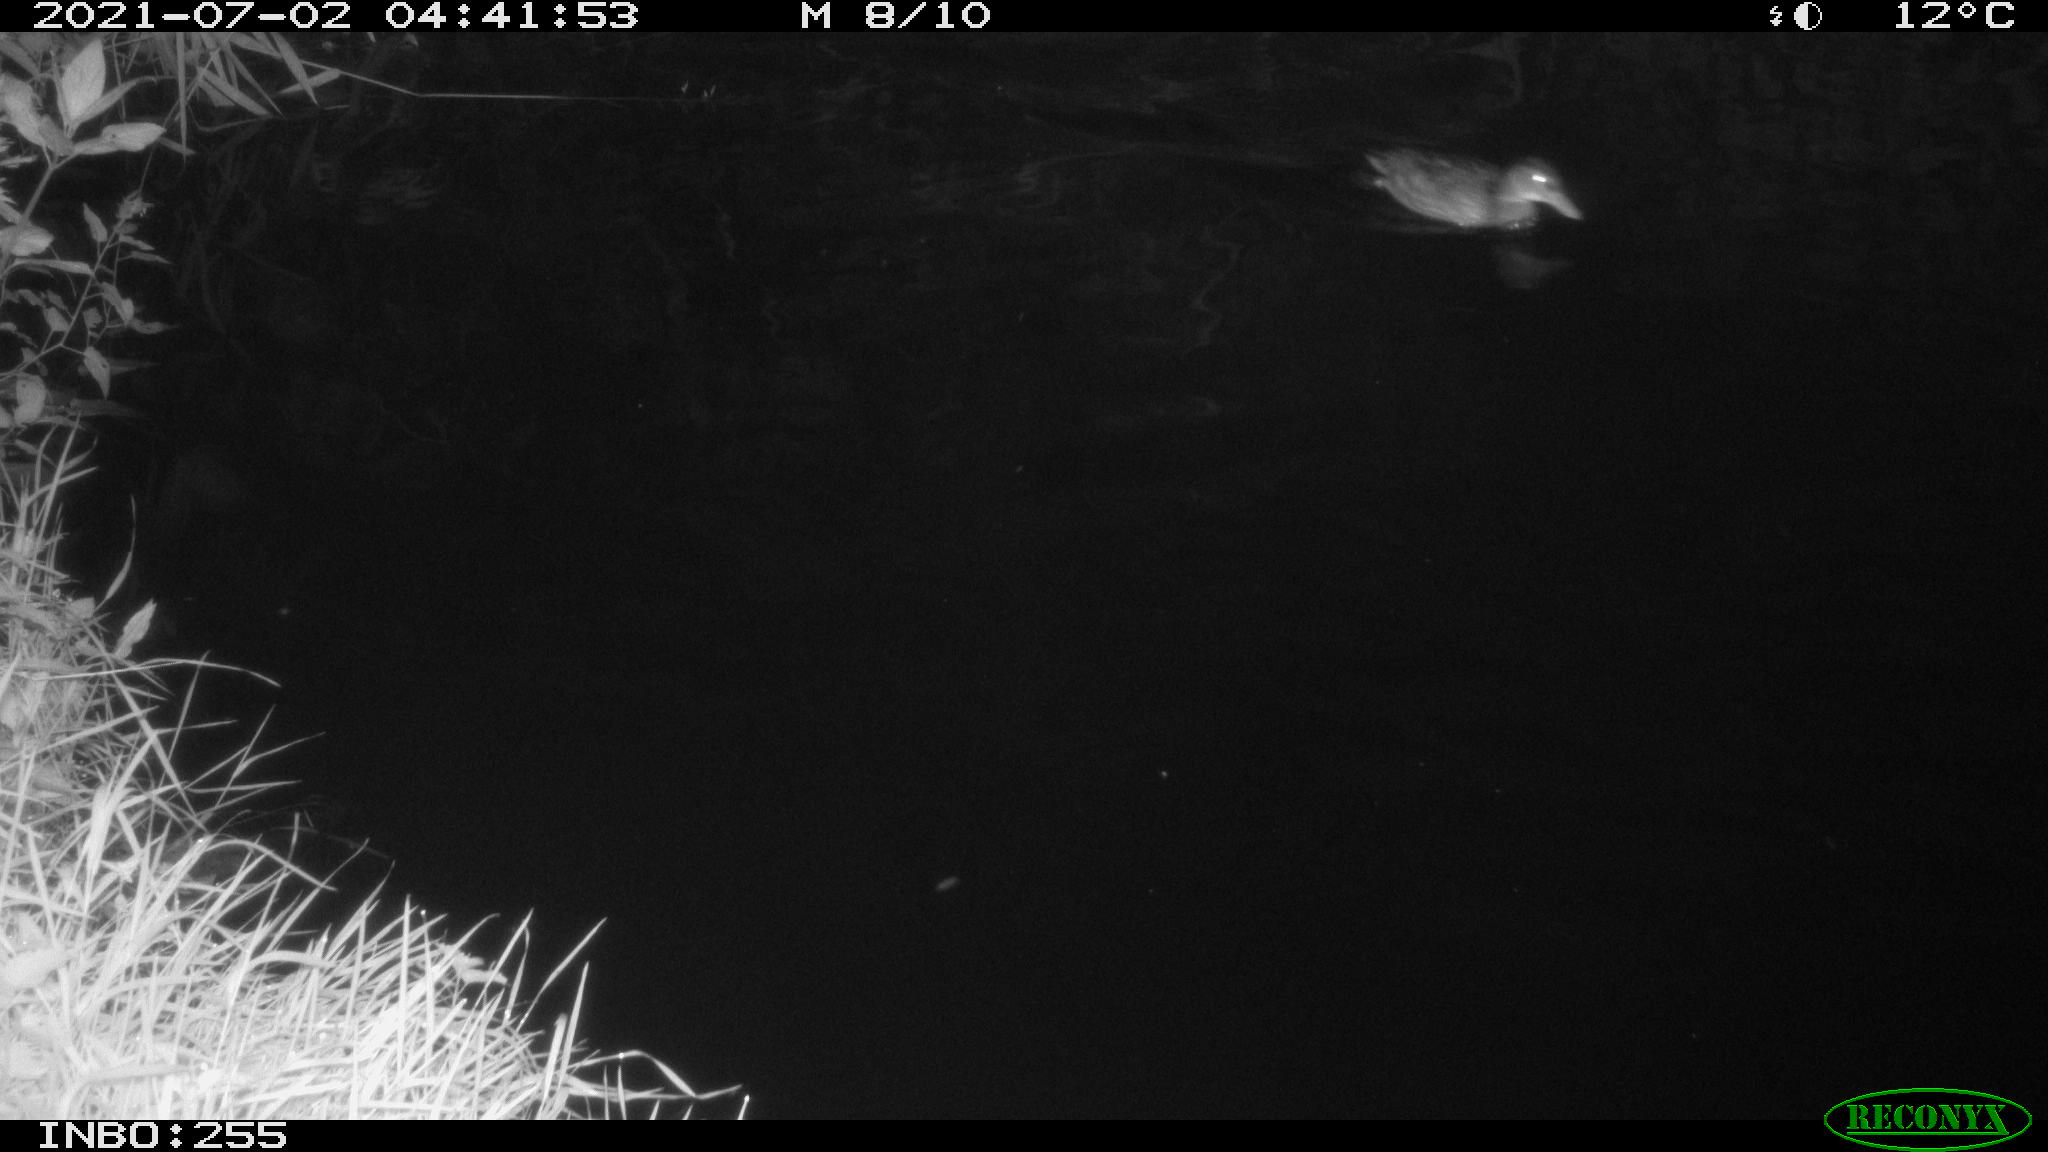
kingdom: Animalia
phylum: Chordata
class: Aves
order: Anseriformes
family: Anatidae
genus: Anas
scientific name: Anas
